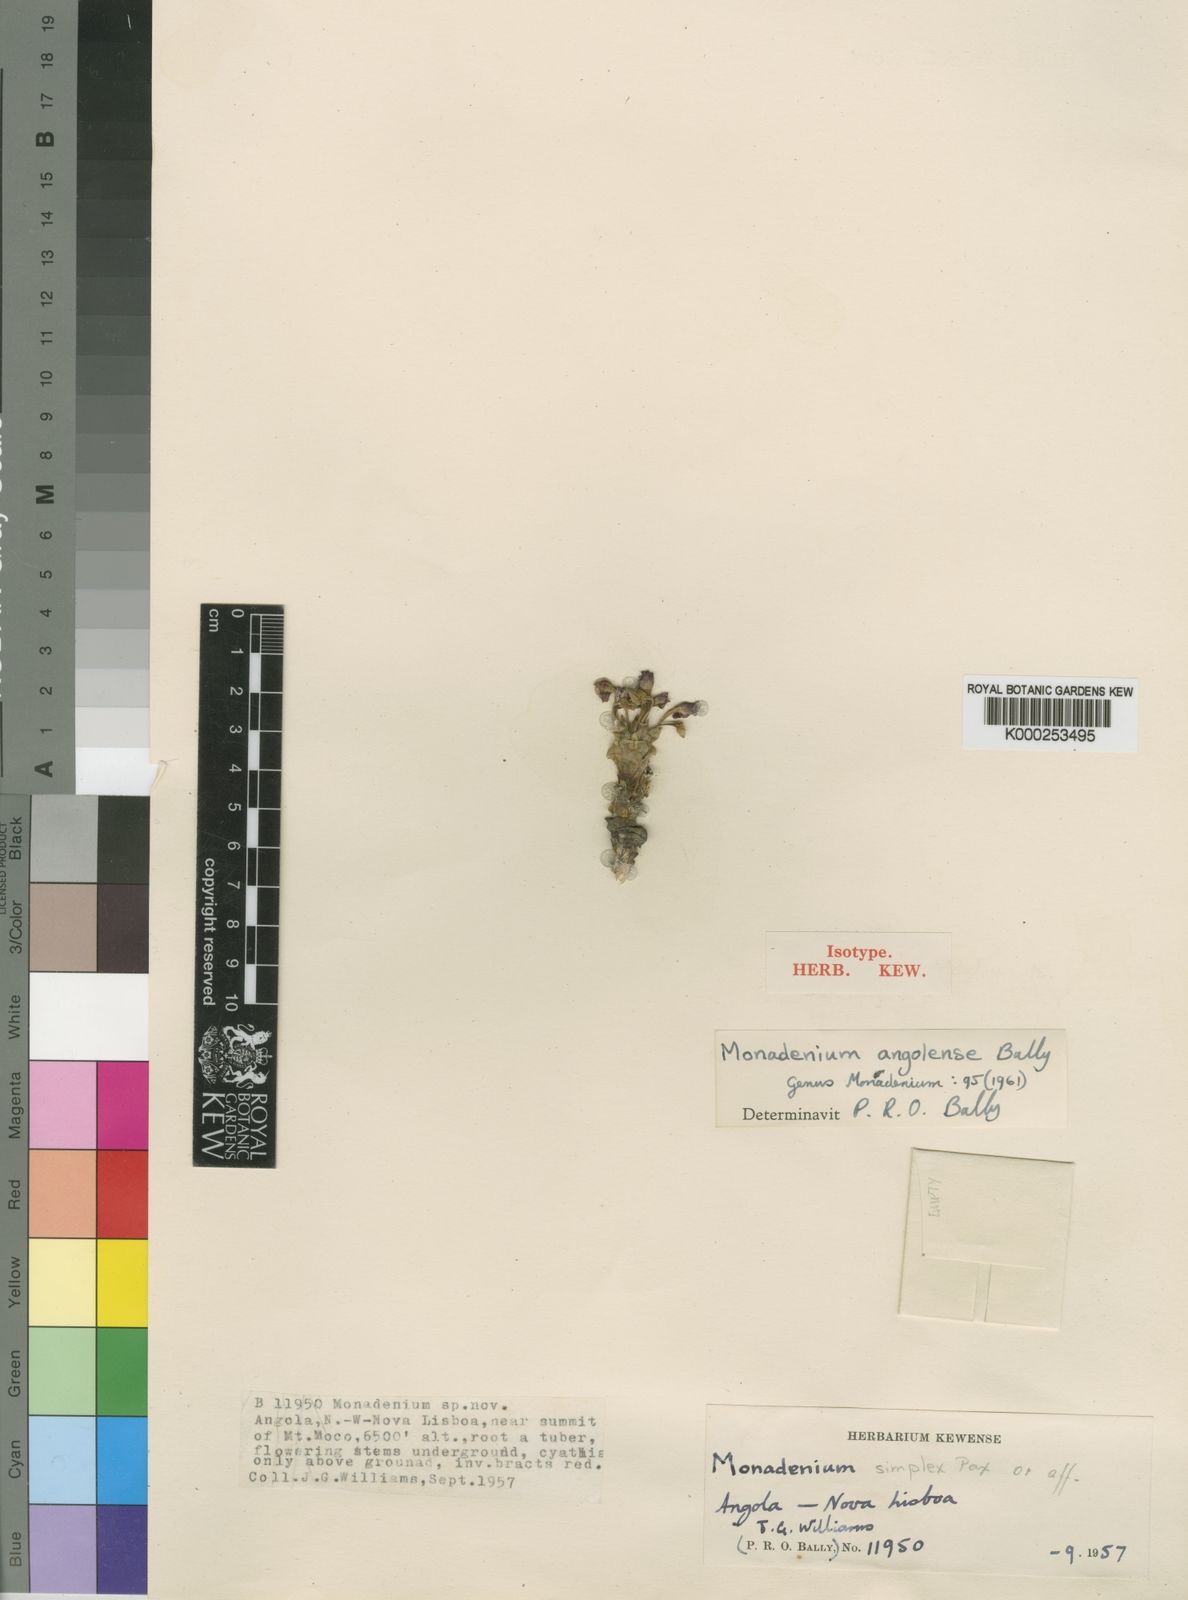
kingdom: Plantae
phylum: Tracheophyta
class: Magnoliopsida
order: Malpighiales
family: Euphorbiaceae
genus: Euphorbia
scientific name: Euphorbia neoangolensis
